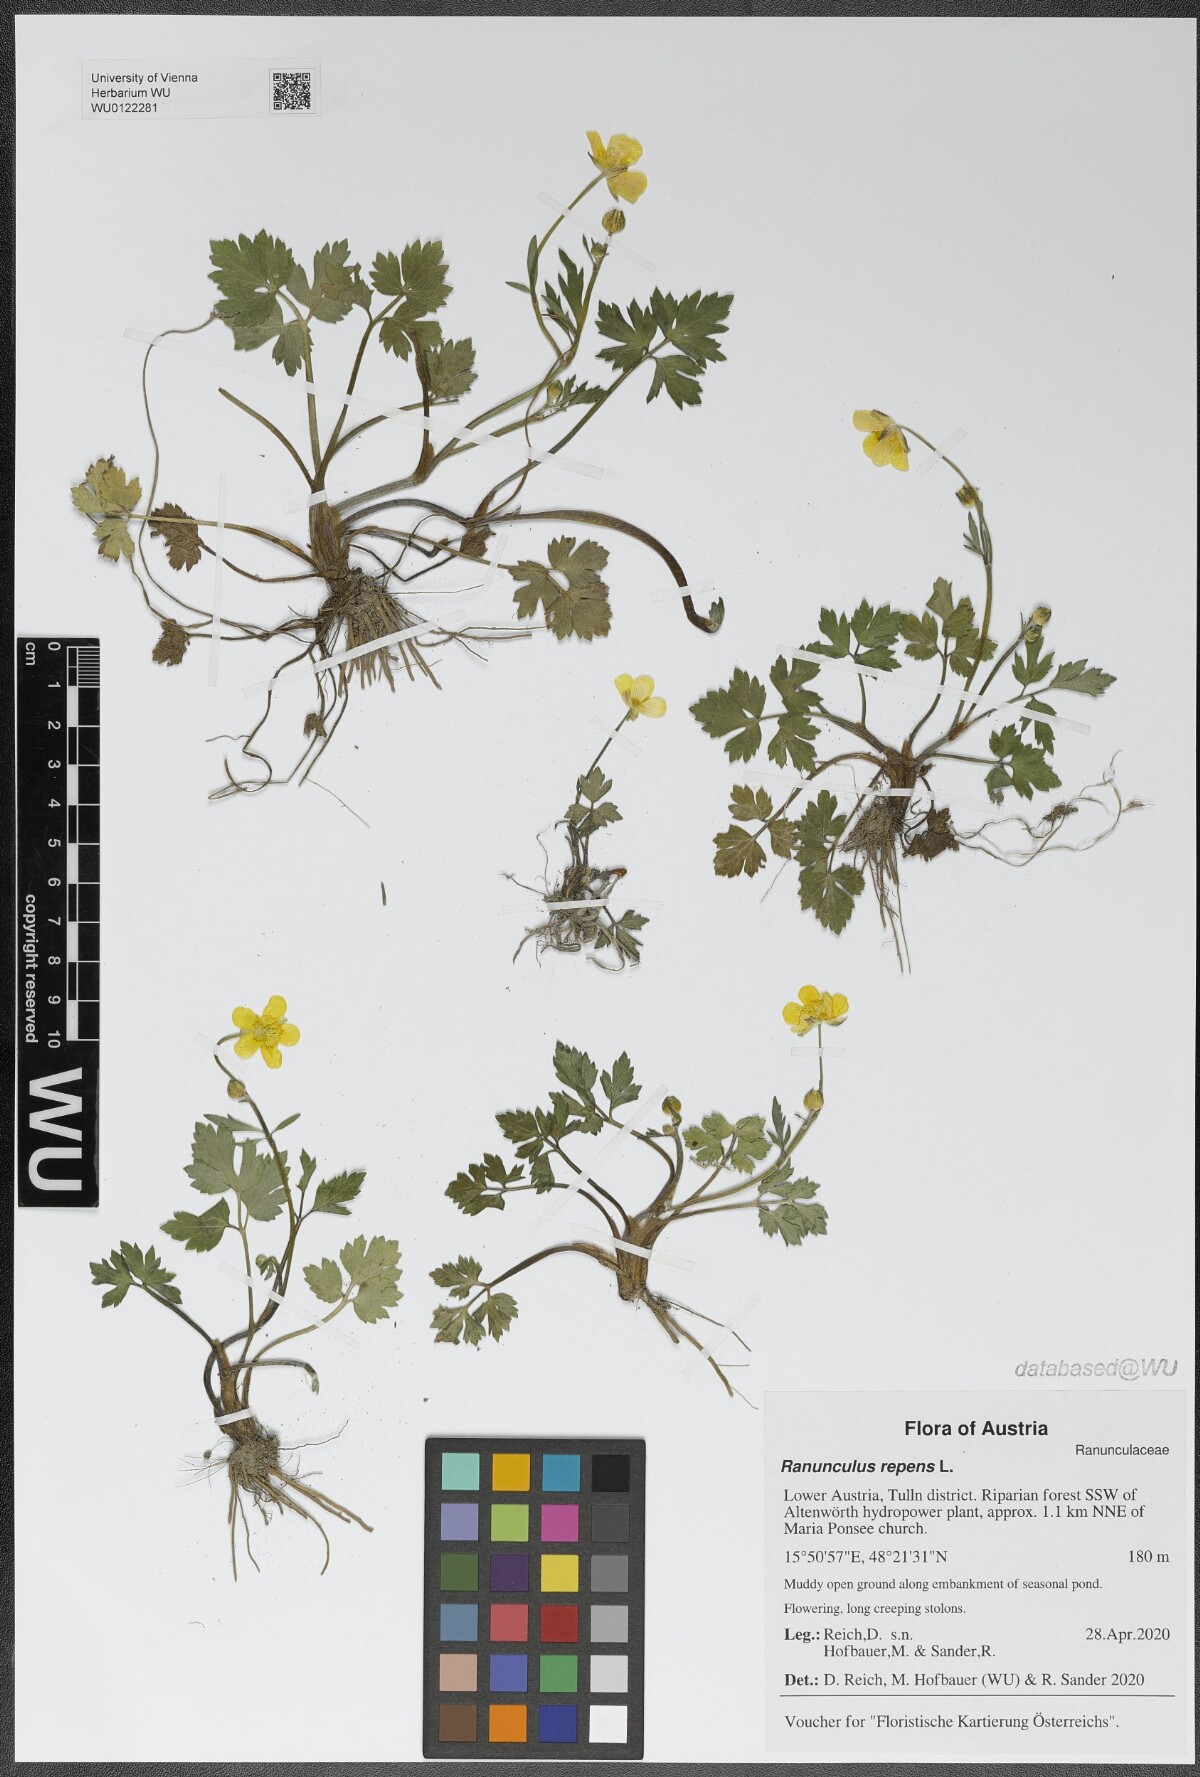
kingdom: Plantae
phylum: Tracheophyta
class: Magnoliopsida
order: Ranunculales
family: Ranunculaceae
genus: Ranunculus
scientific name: Ranunculus repens
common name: Creeping buttercup
